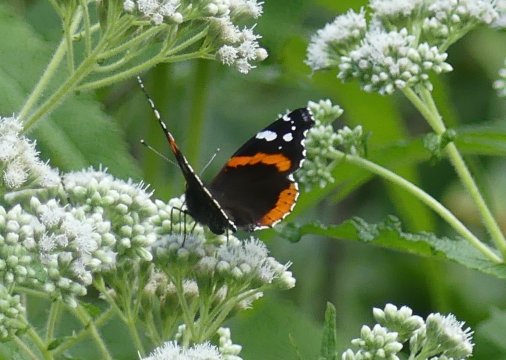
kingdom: Animalia
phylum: Arthropoda
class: Insecta
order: Lepidoptera
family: Nymphalidae
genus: Vanessa
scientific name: Vanessa atalanta
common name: Red Admiral
